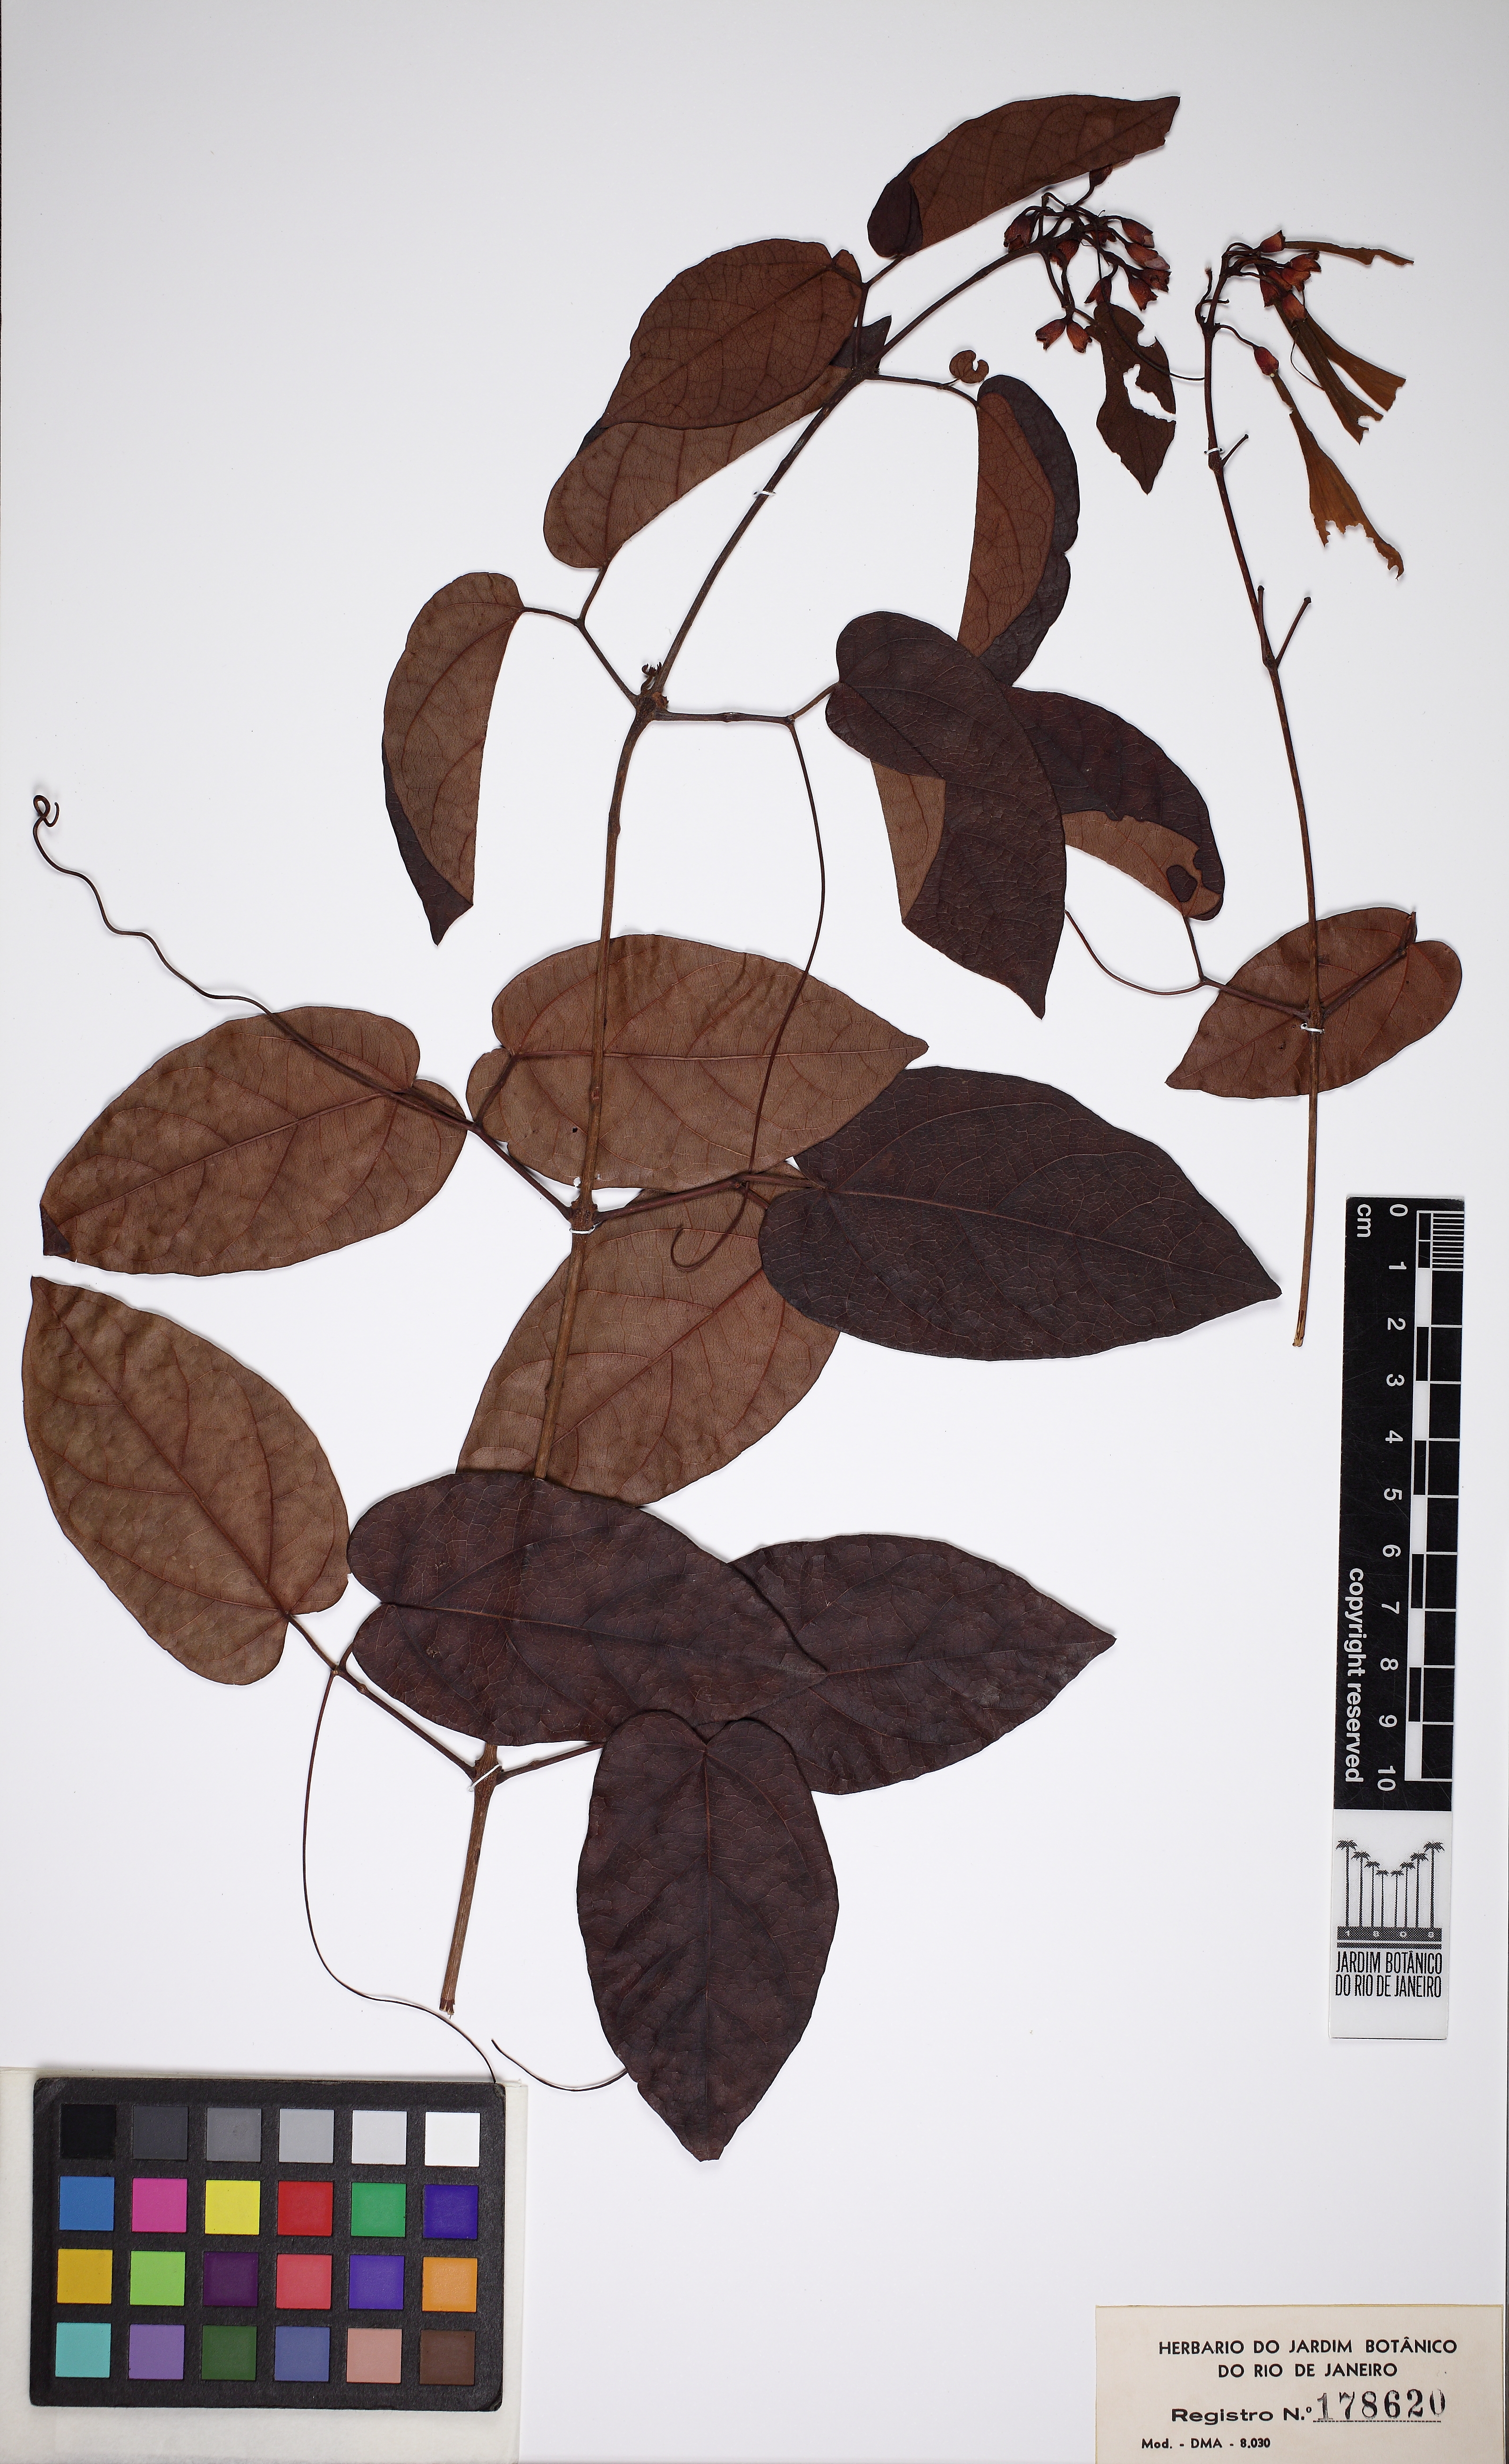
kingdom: Plantae
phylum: Tracheophyta
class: Magnoliopsida
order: Lamiales
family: Bignoniaceae
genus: Lundia
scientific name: Lundia longa
